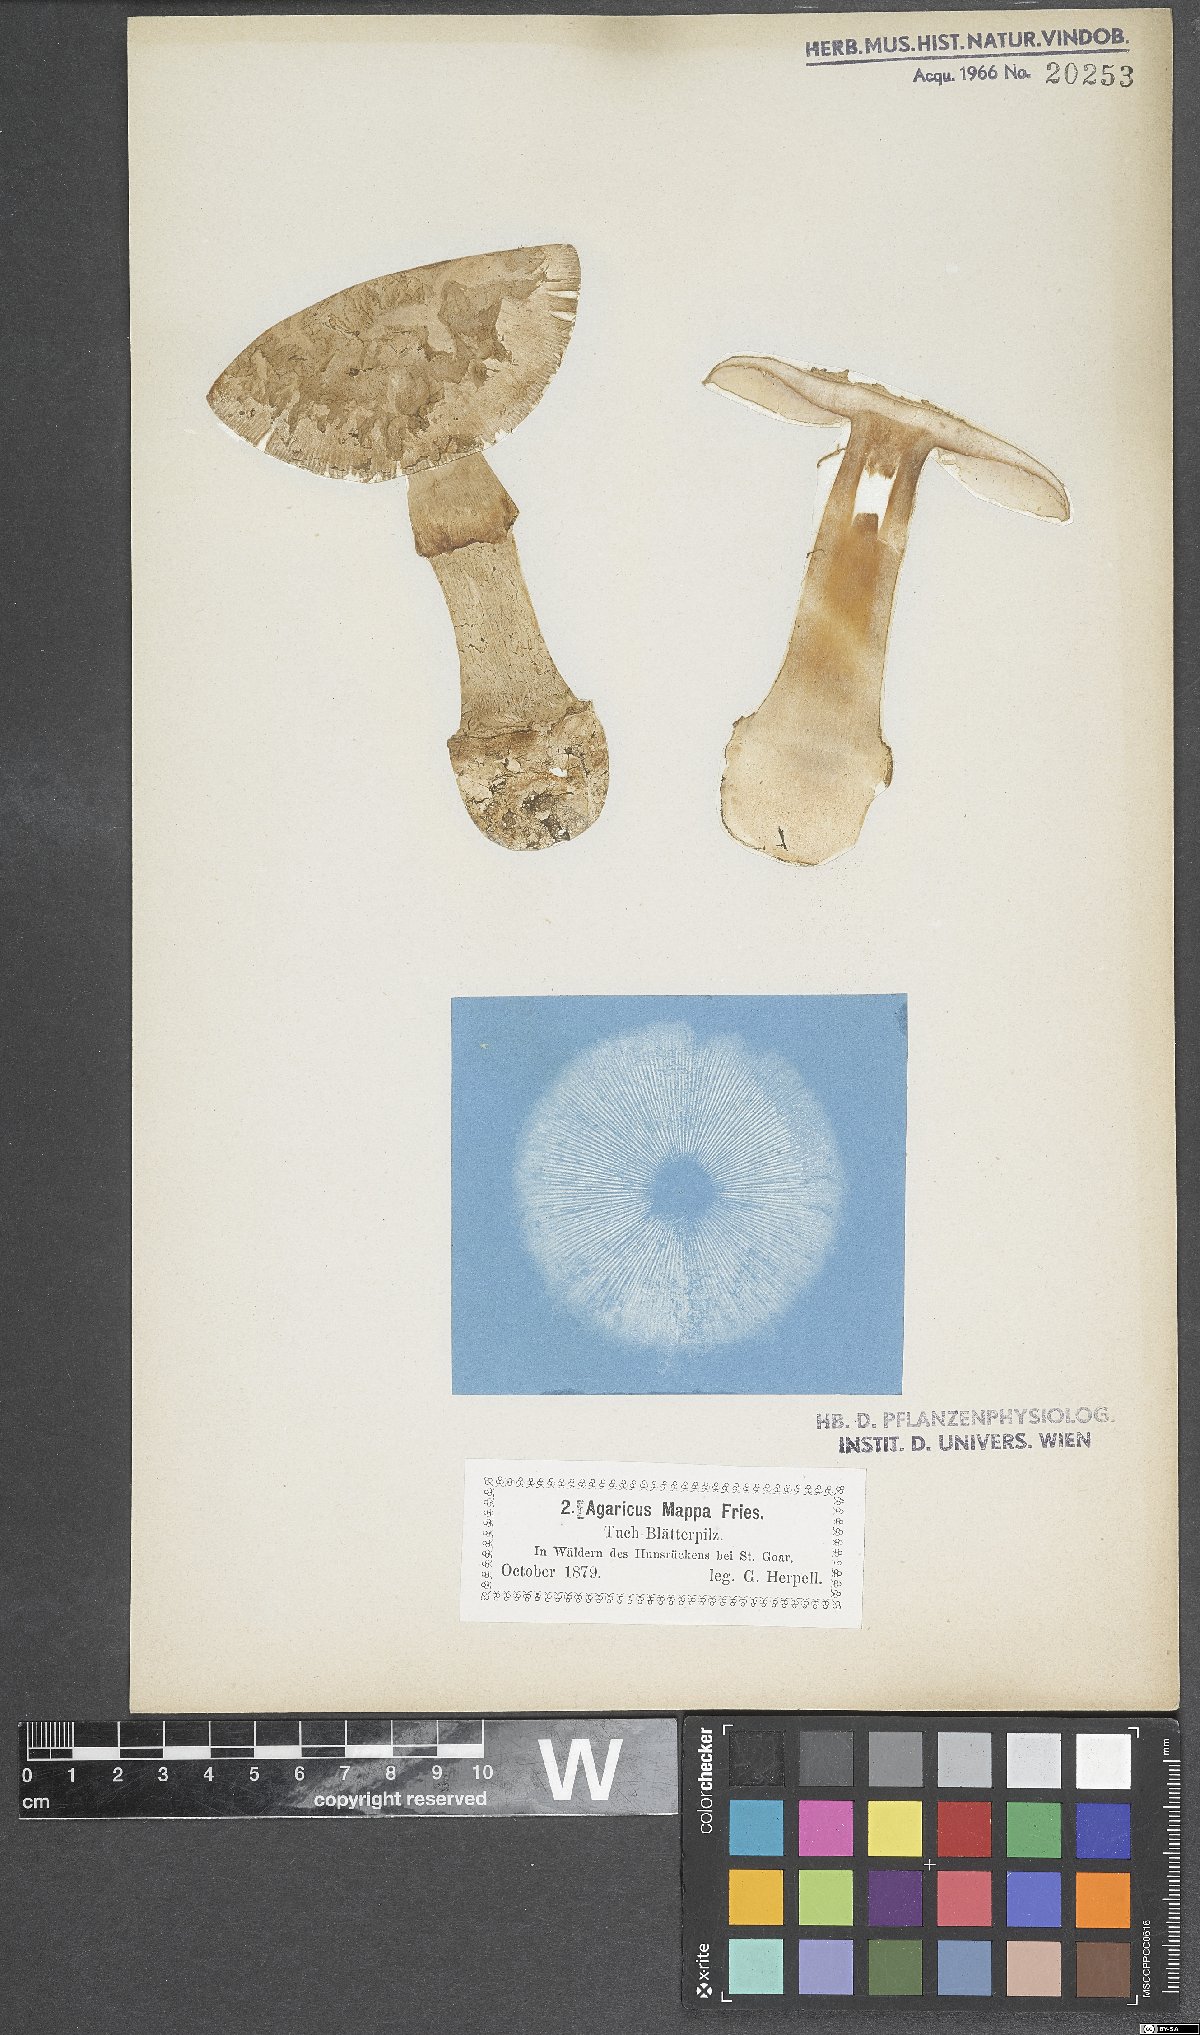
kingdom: Fungi
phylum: Basidiomycota
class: Agaricomycetes
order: Agaricales
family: Amanitaceae
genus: Amanita
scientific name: Amanita citrina
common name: False death-cap
